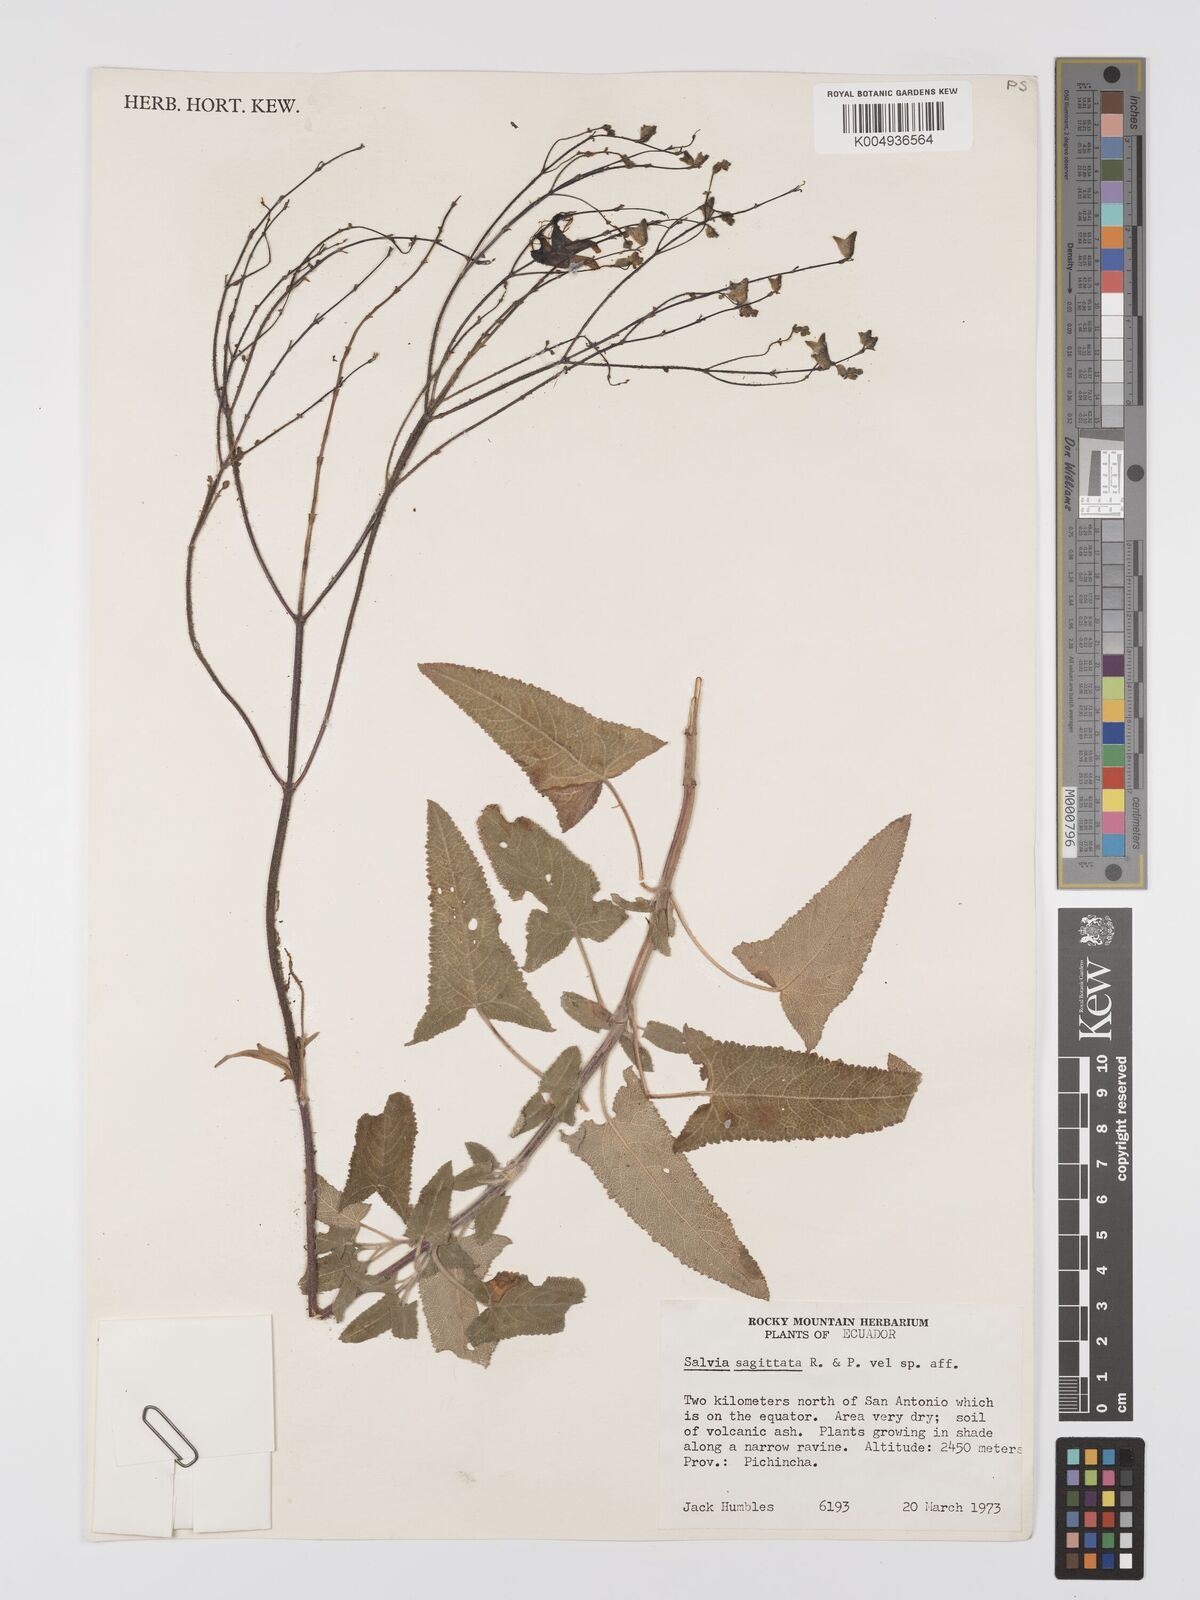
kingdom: Plantae
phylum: Tracheophyta
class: Magnoliopsida
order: Lamiales
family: Lamiaceae
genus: Salvia
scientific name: Salvia sagittata
